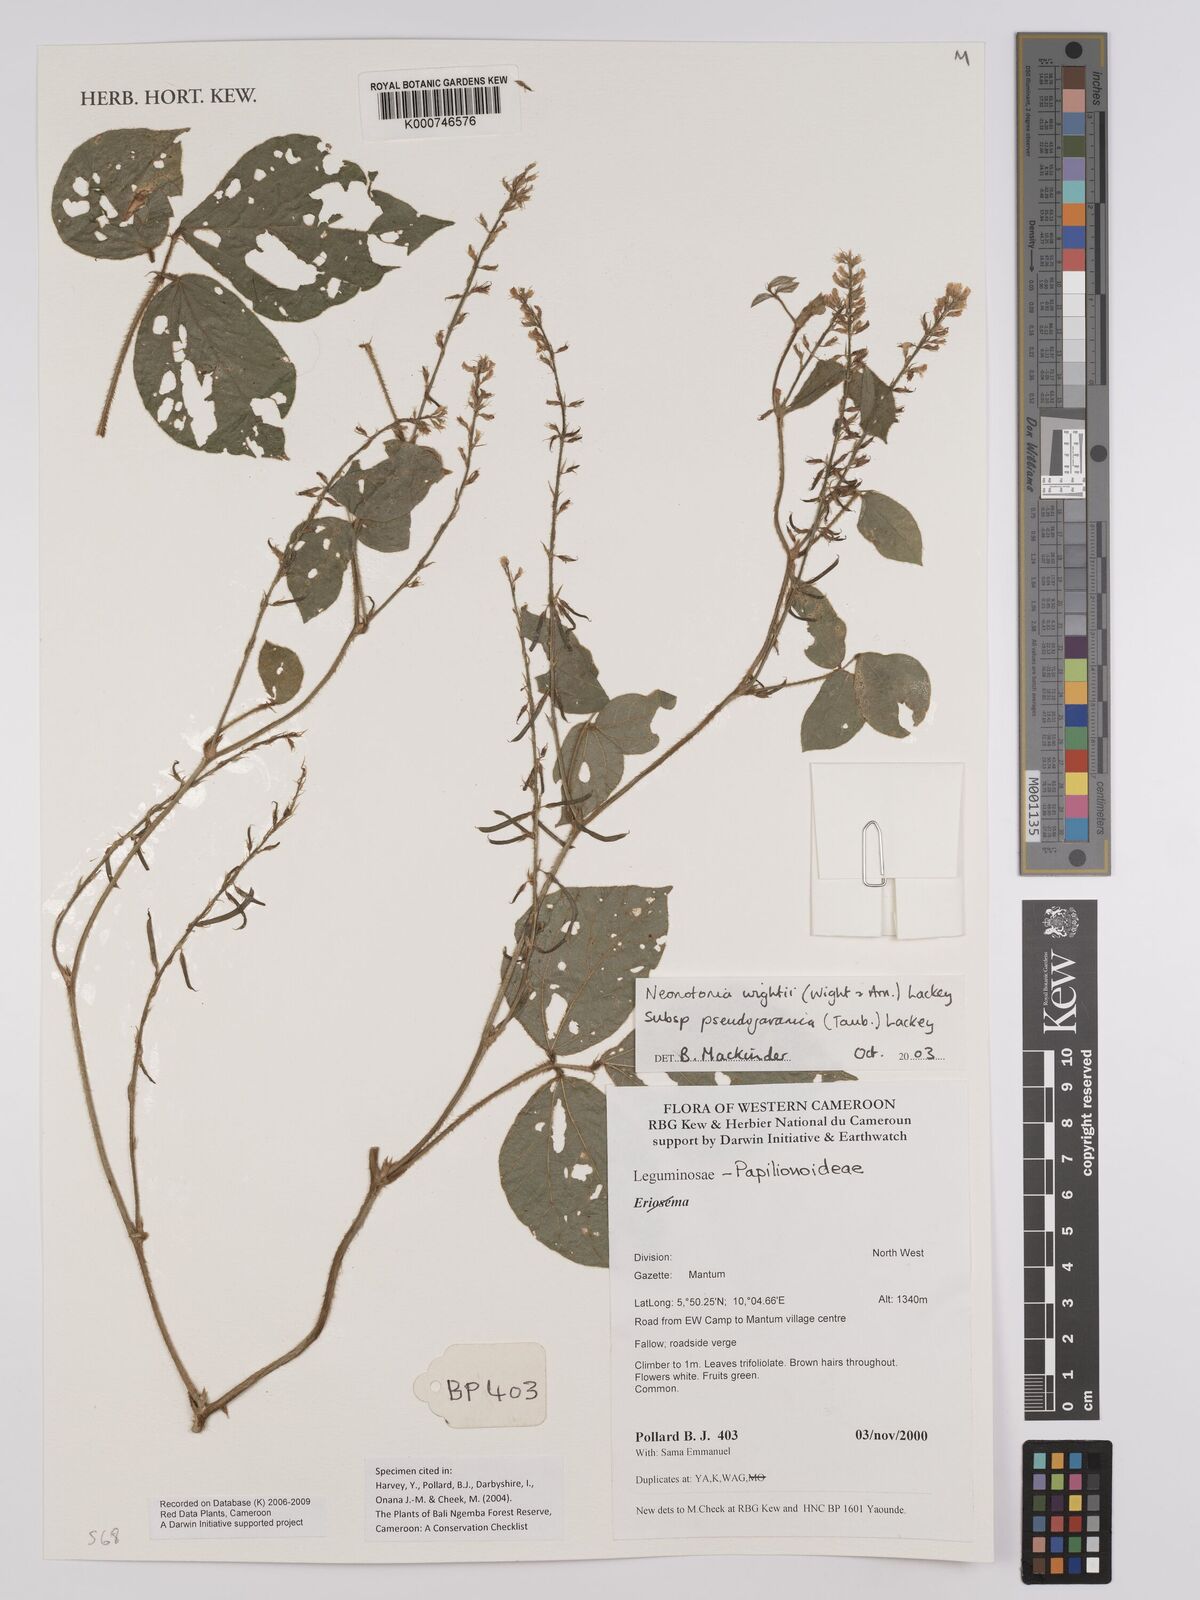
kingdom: Plantae
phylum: Tracheophyta
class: Magnoliopsida
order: Fabales
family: Fabaceae
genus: Neonotonia
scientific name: Neonotonia wightii
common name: Perennial soybean
